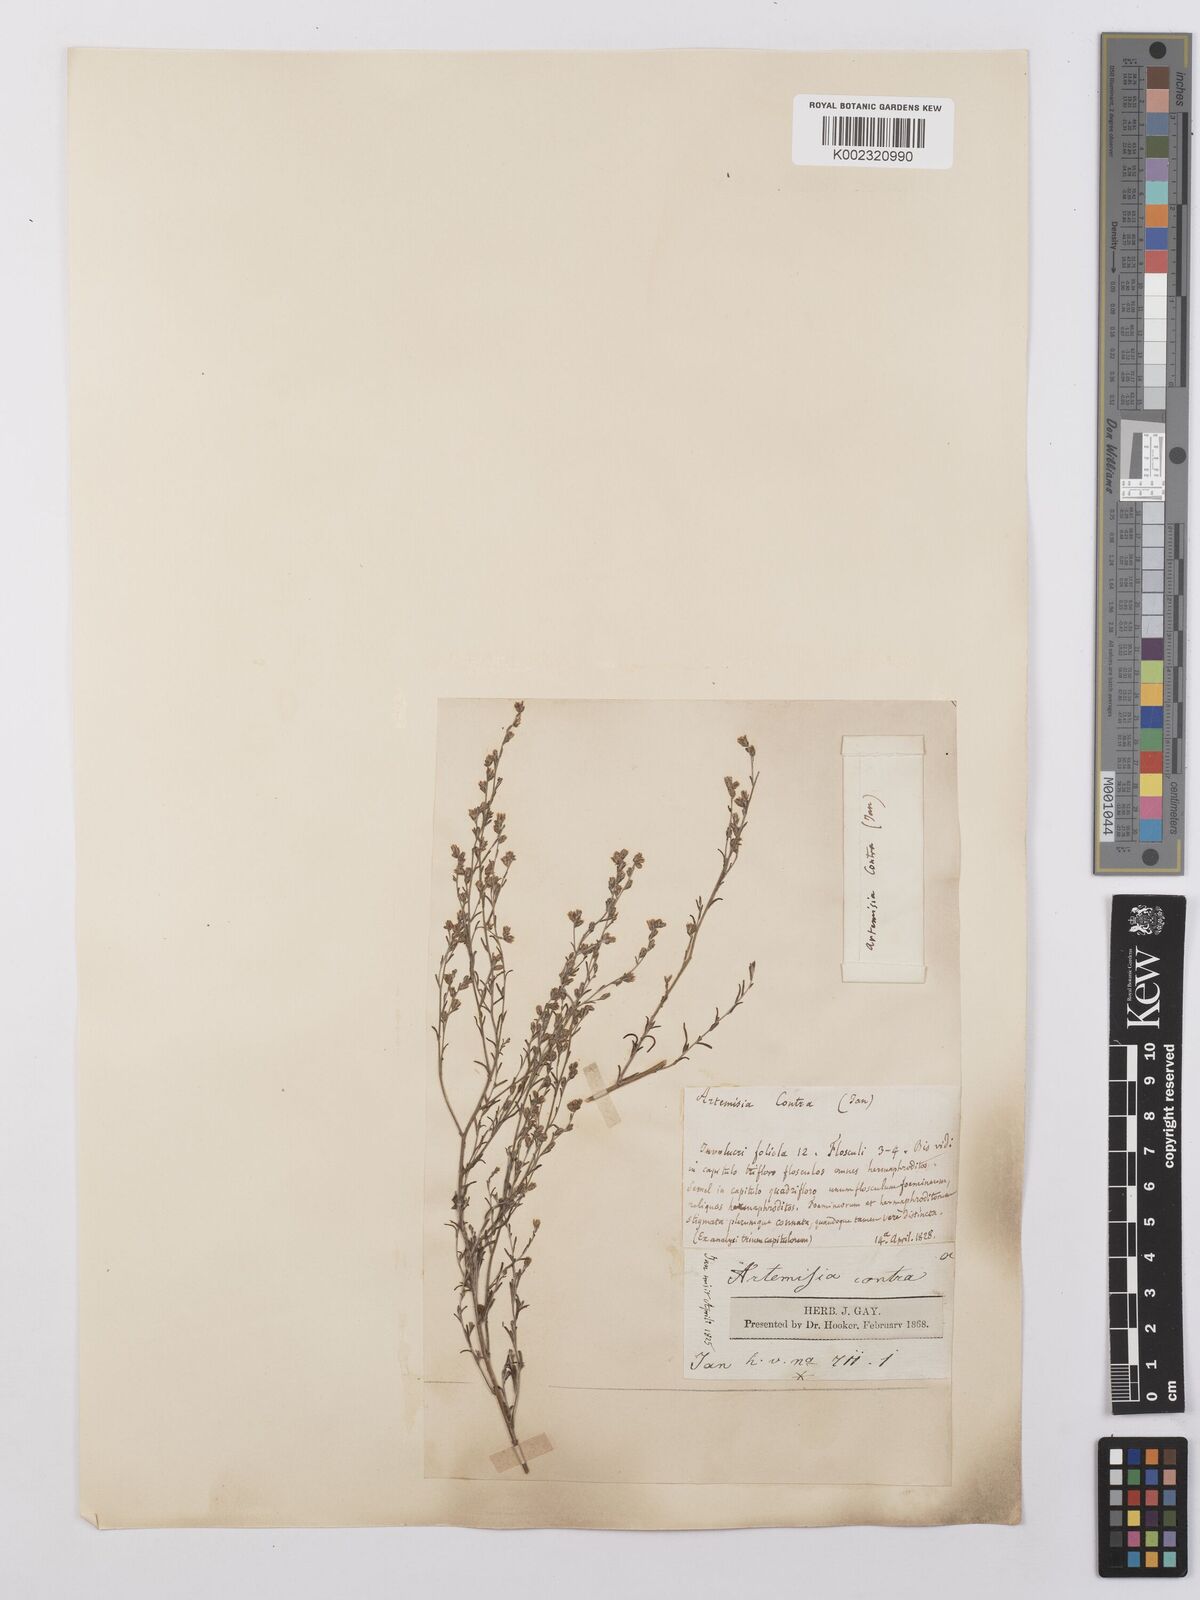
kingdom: Plantae
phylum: Tracheophyta
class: Magnoliopsida
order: Asterales
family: Asteraceae
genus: Artemisia
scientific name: Artemisia santonicum
